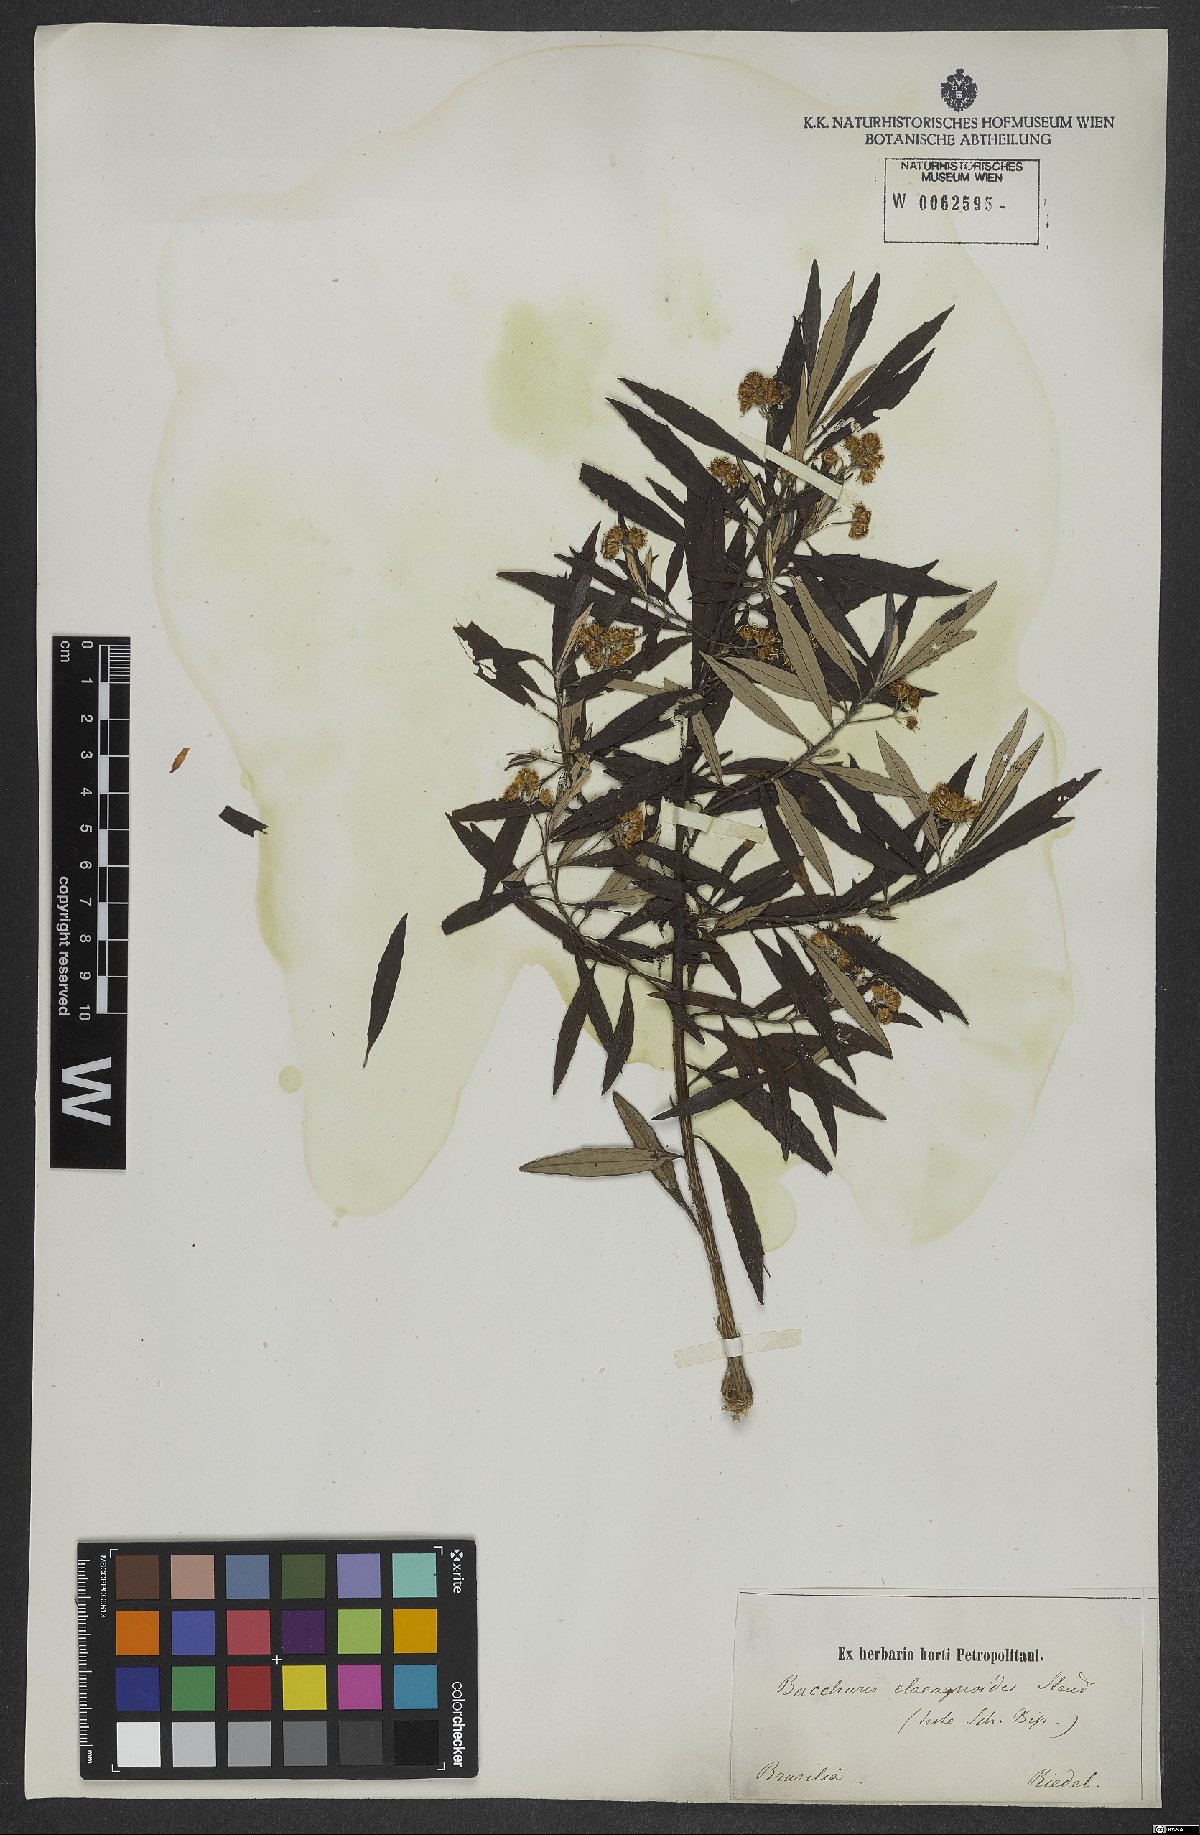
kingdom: Plantae
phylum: Tracheophyta
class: Magnoliopsida
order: Asterales
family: Asteraceae
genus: Baccharis
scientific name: Baccharis montana
